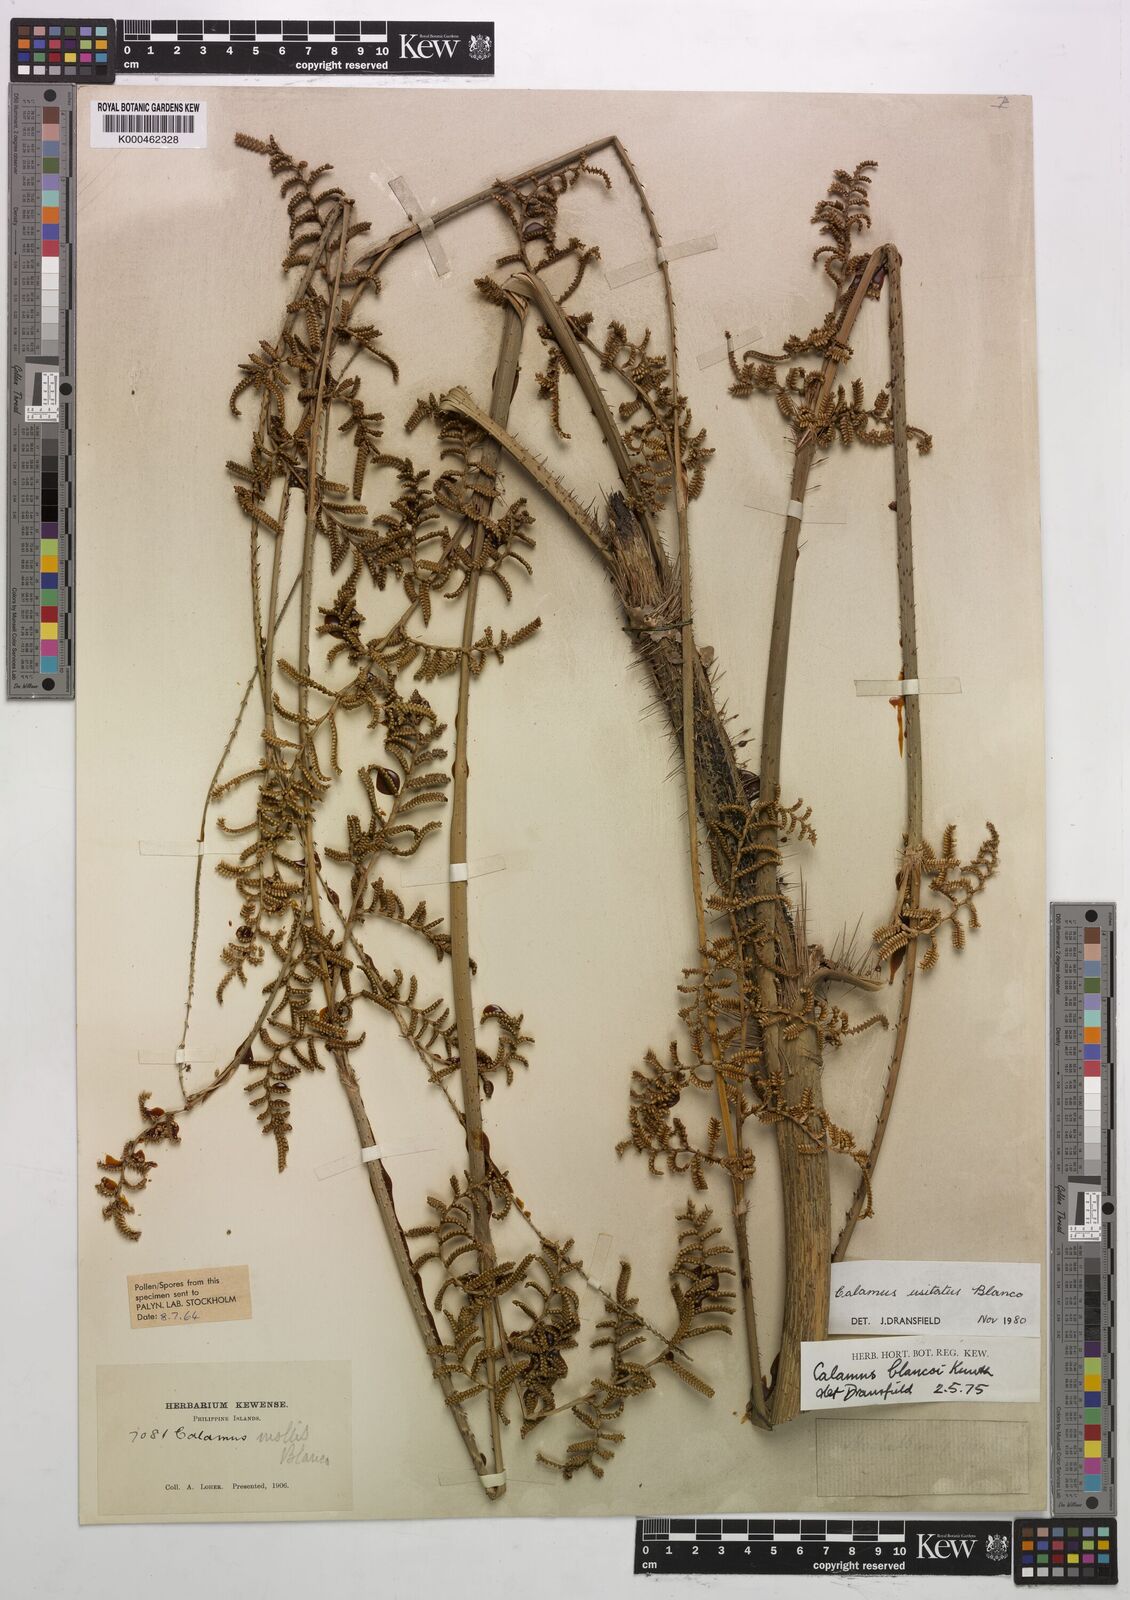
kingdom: Plantae
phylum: Tracheophyta
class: Liliopsida
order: Arecales
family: Arecaceae
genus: Calamus
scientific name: Calamus usitatus
